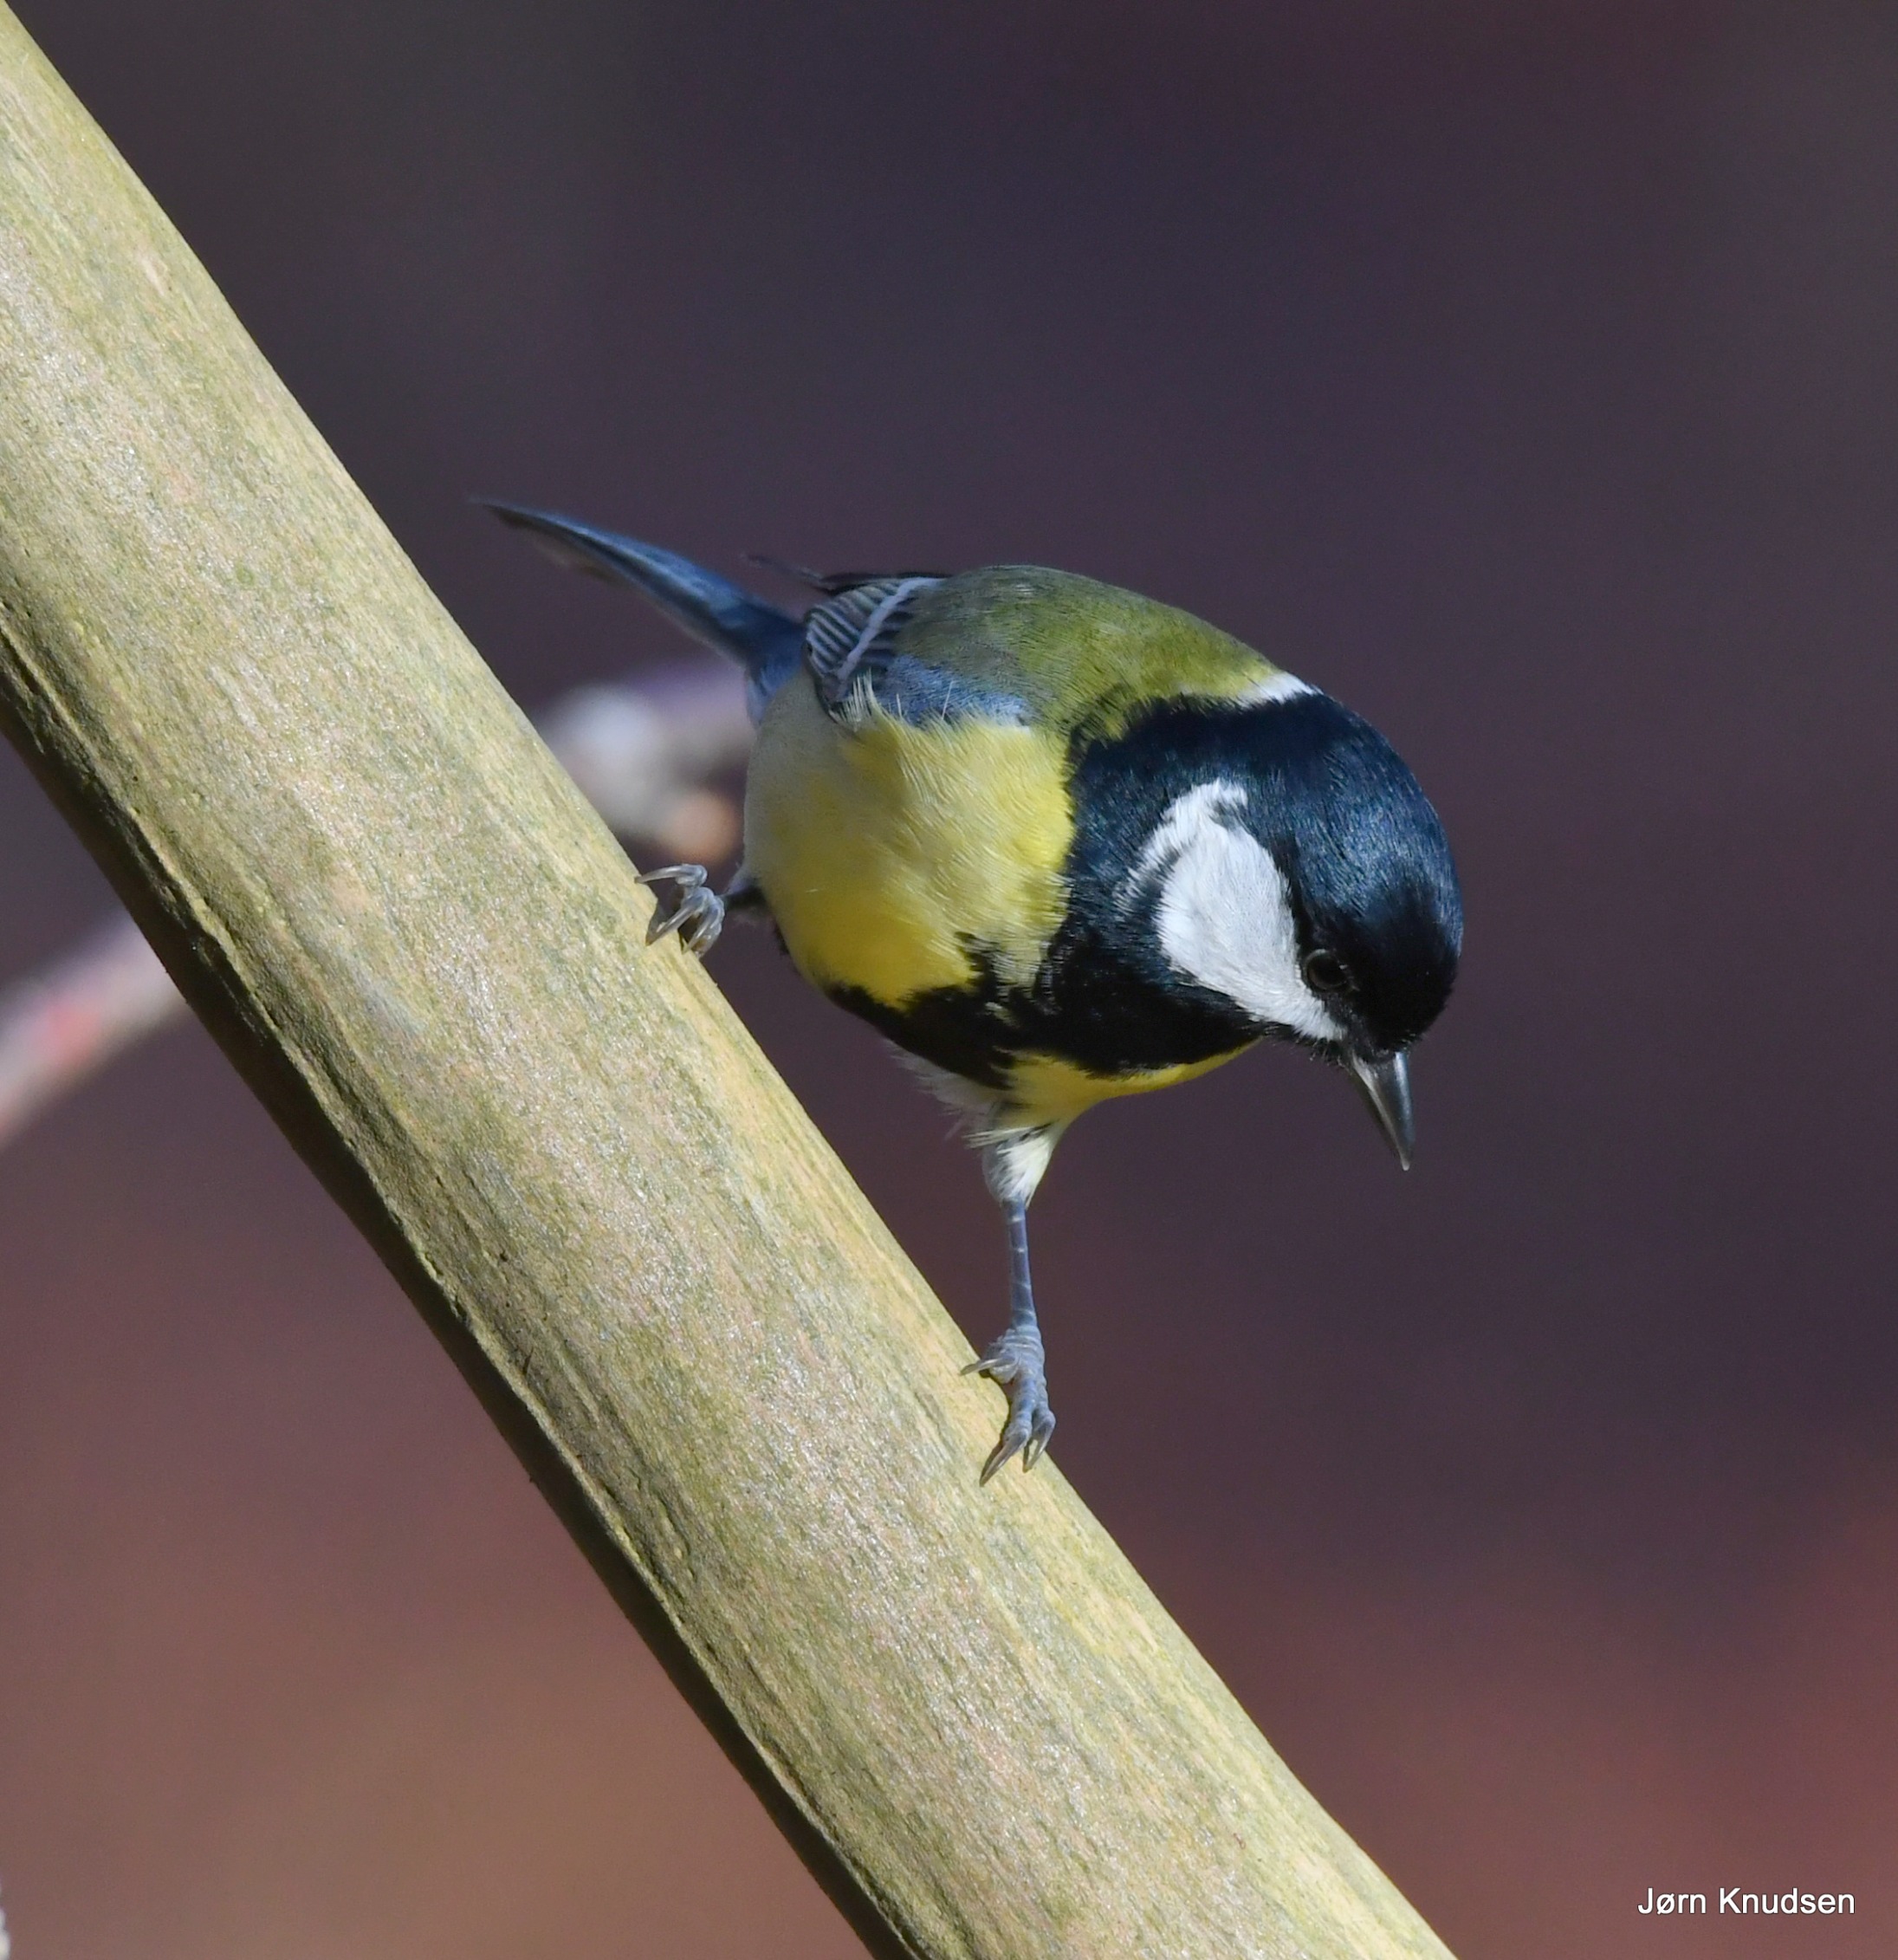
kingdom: Animalia
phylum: Chordata
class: Aves
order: Passeriformes
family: Paridae
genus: Parus
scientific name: Parus major
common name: Musvit
